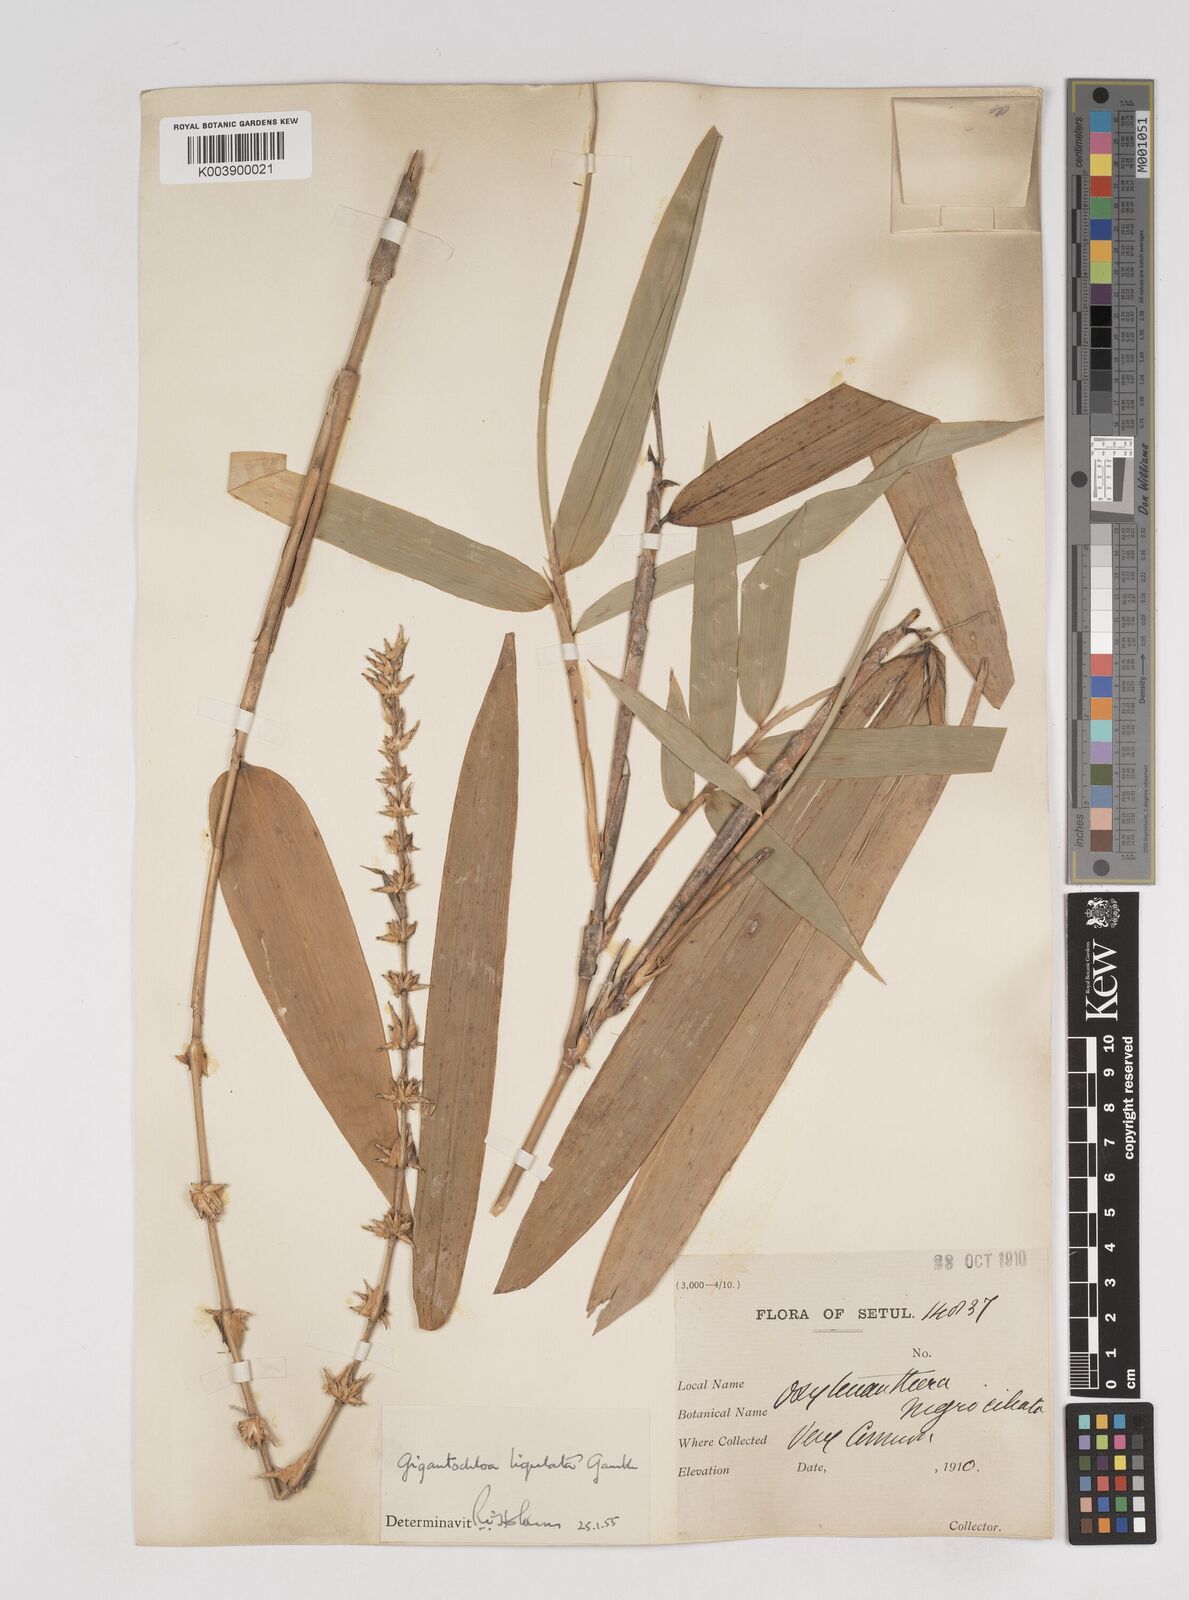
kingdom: Plantae
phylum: Tracheophyta
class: Liliopsida
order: Poales
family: Poaceae
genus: Gigantochloa
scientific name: Gigantochloa ligulata
